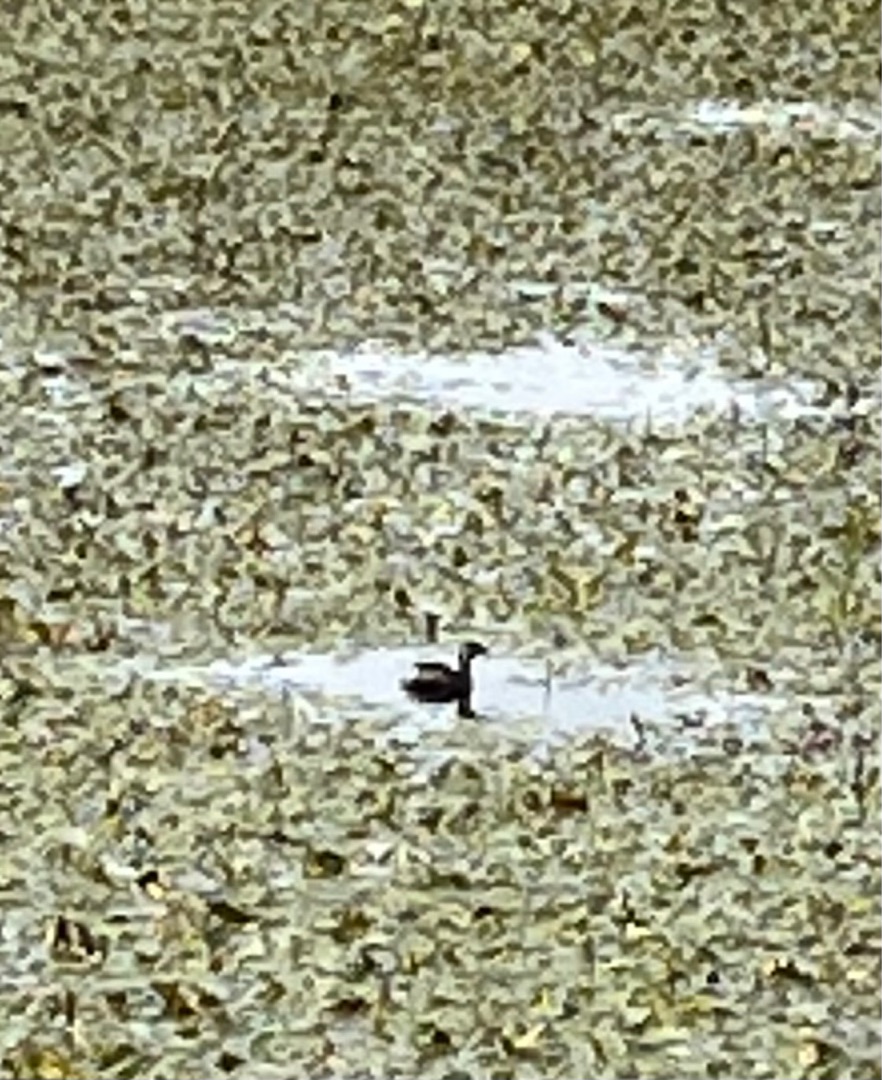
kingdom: Animalia
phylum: Chordata
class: Aves
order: Podicipediformes
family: Podicipedidae
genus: Tachybaptus
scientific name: Tachybaptus ruficollis
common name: Lille lappedykker
